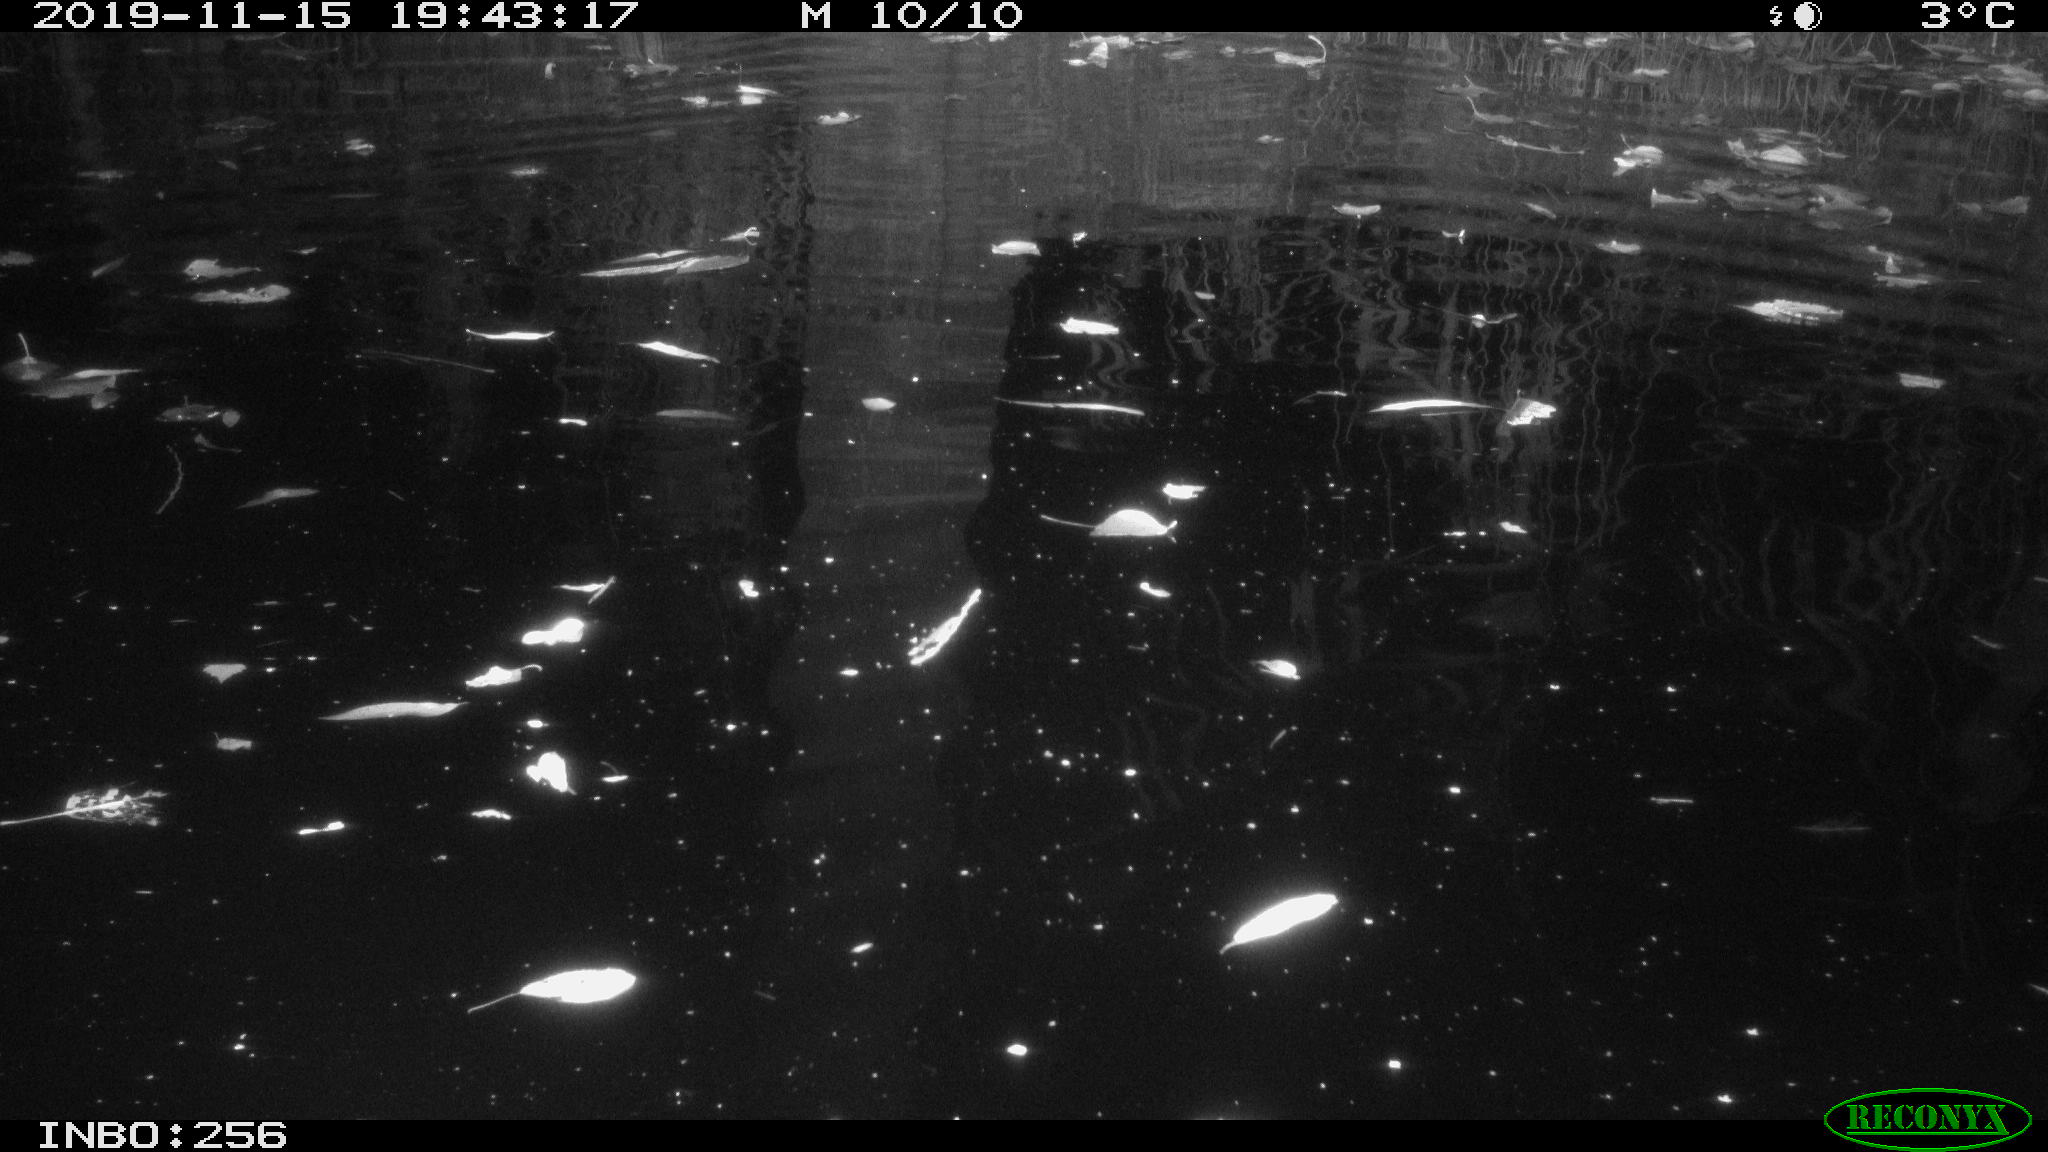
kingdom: Animalia
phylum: Chordata
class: Mammalia
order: Rodentia
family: Muridae
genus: Rattus
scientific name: Rattus norvegicus
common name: Brown rat
